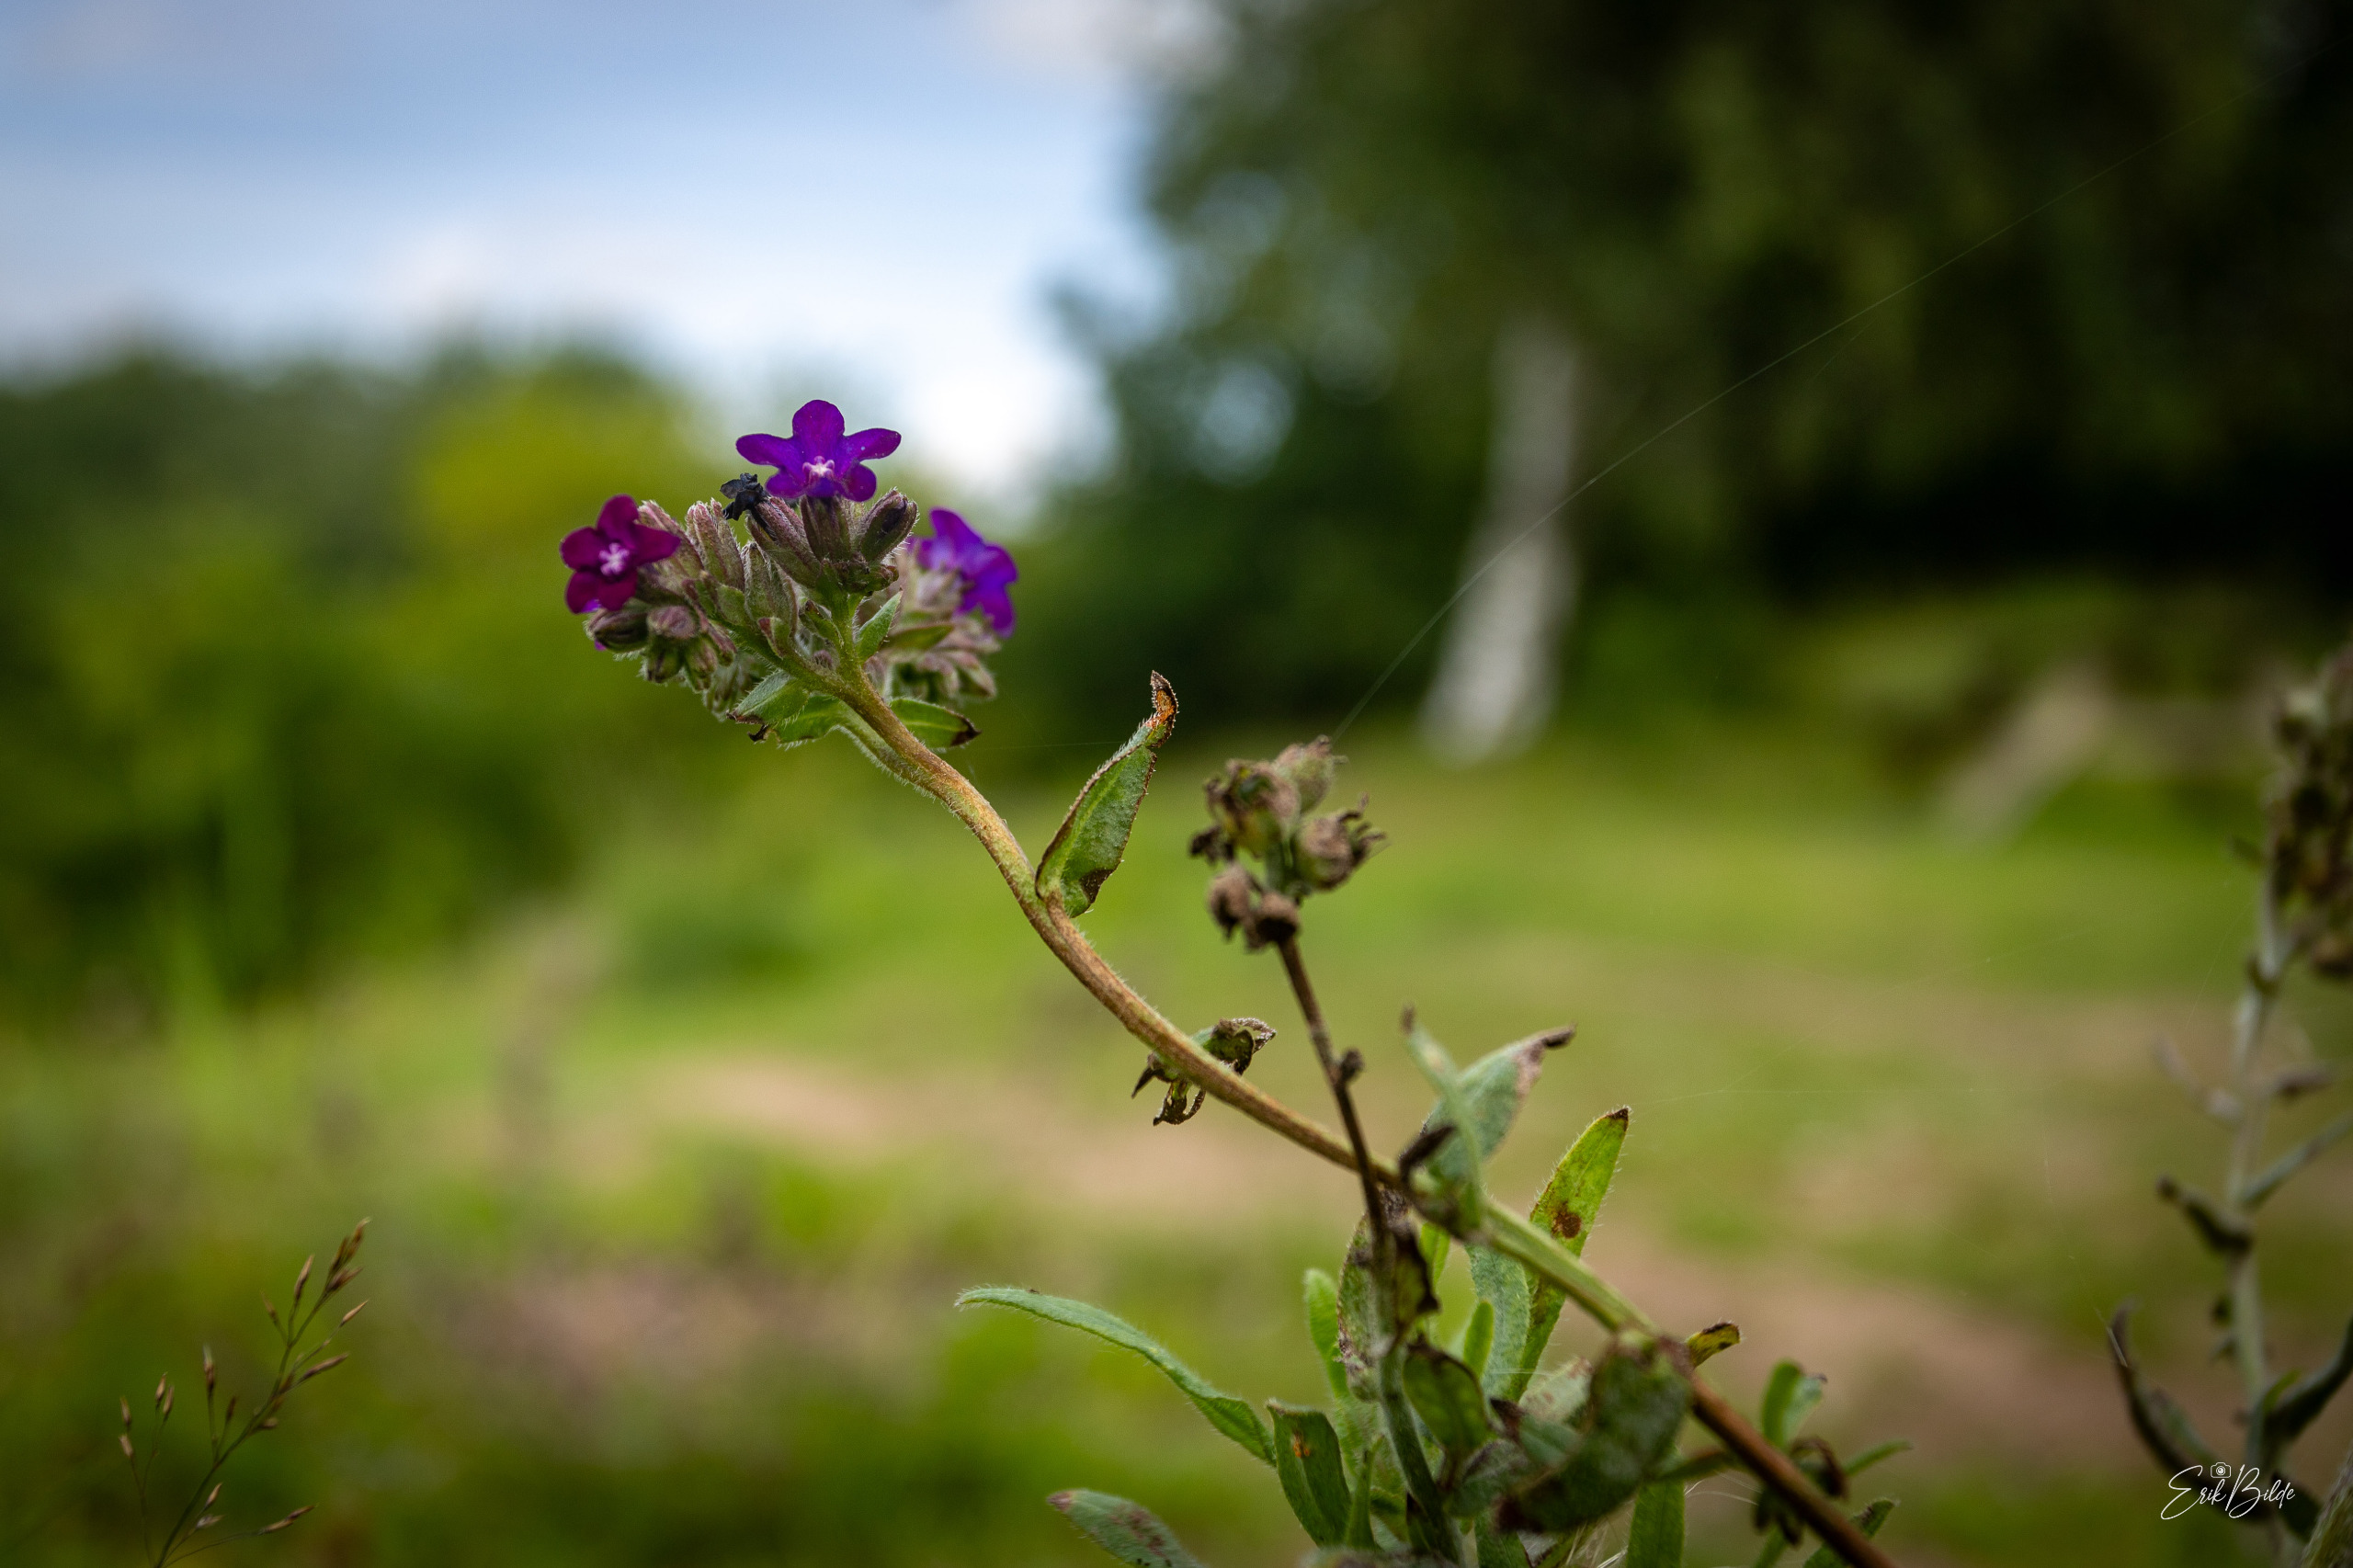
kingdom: Plantae
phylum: Tracheophyta
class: Magnoliopsida
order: Boraginales
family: Boraginaceae
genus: Anchusa
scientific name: Anchusa officinalis
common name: Læge-oksetunge
